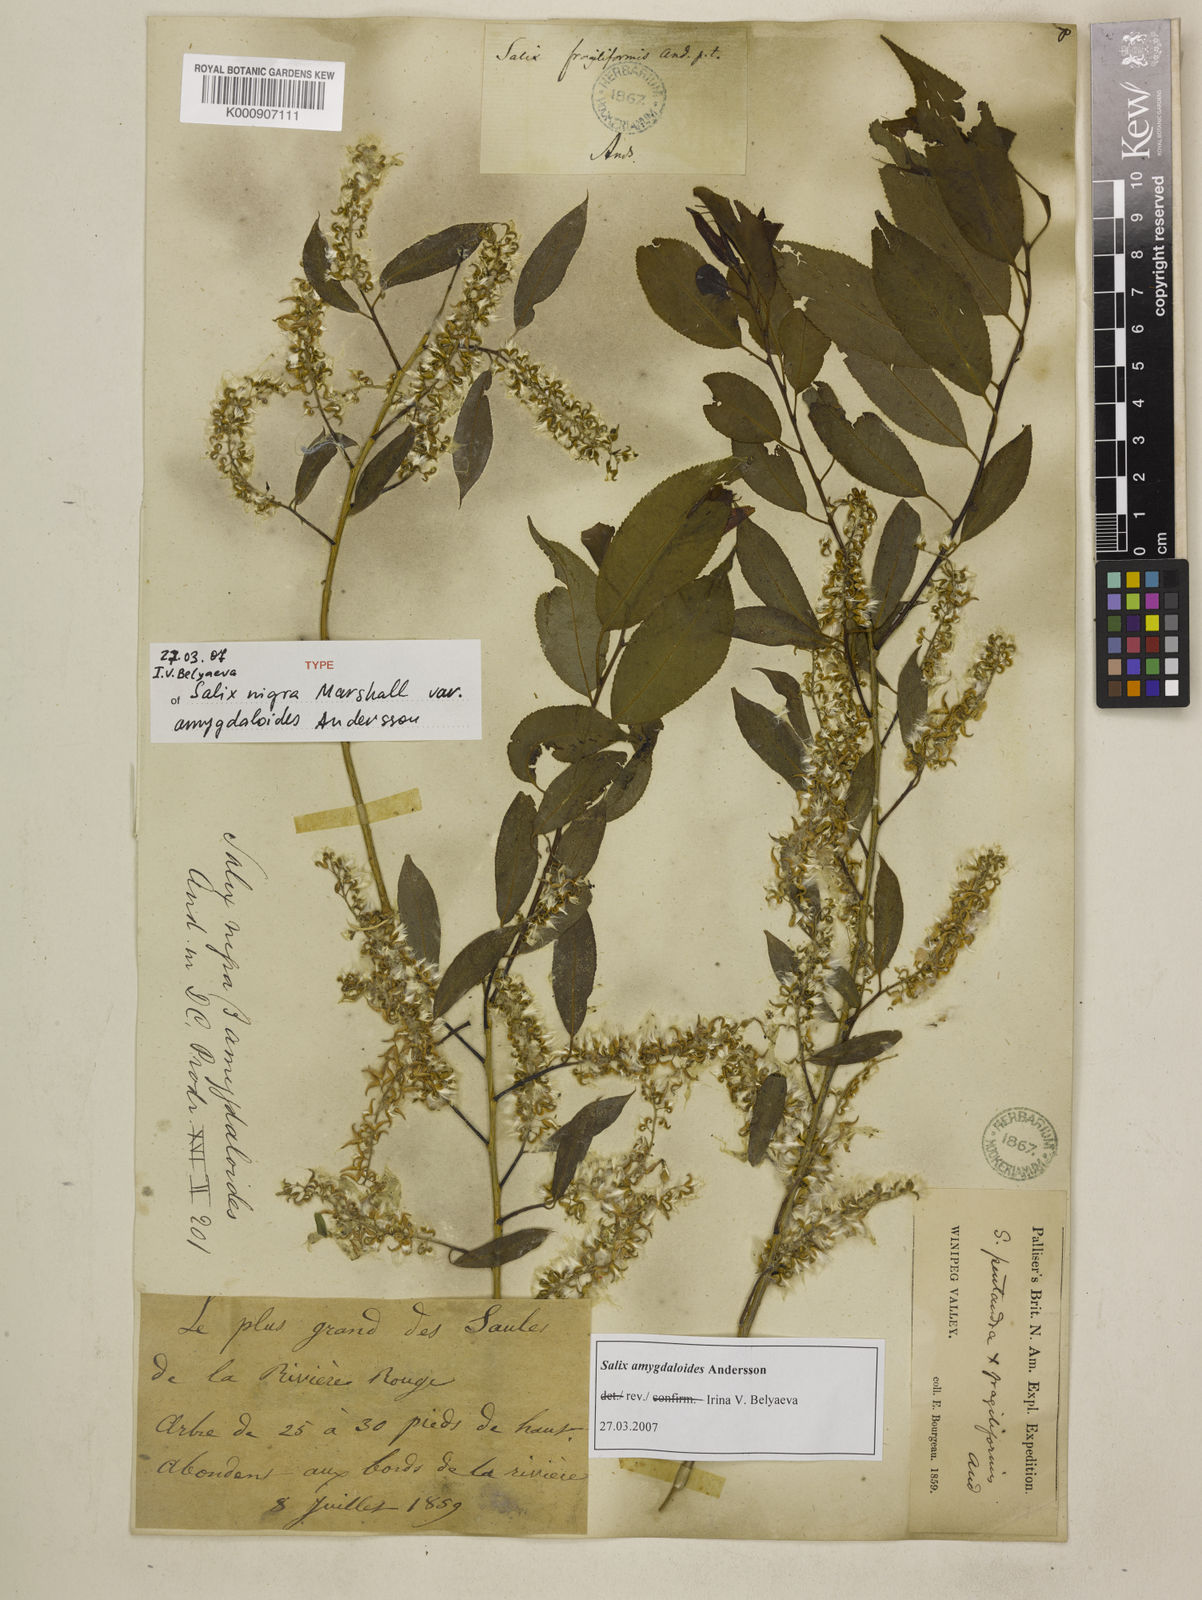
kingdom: Plantae
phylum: Tracheophyta
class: Magnoliopsida
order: Malpighiales
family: Salicaceae
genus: Salix
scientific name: Salix amygdaloides
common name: Peach leaf willow
